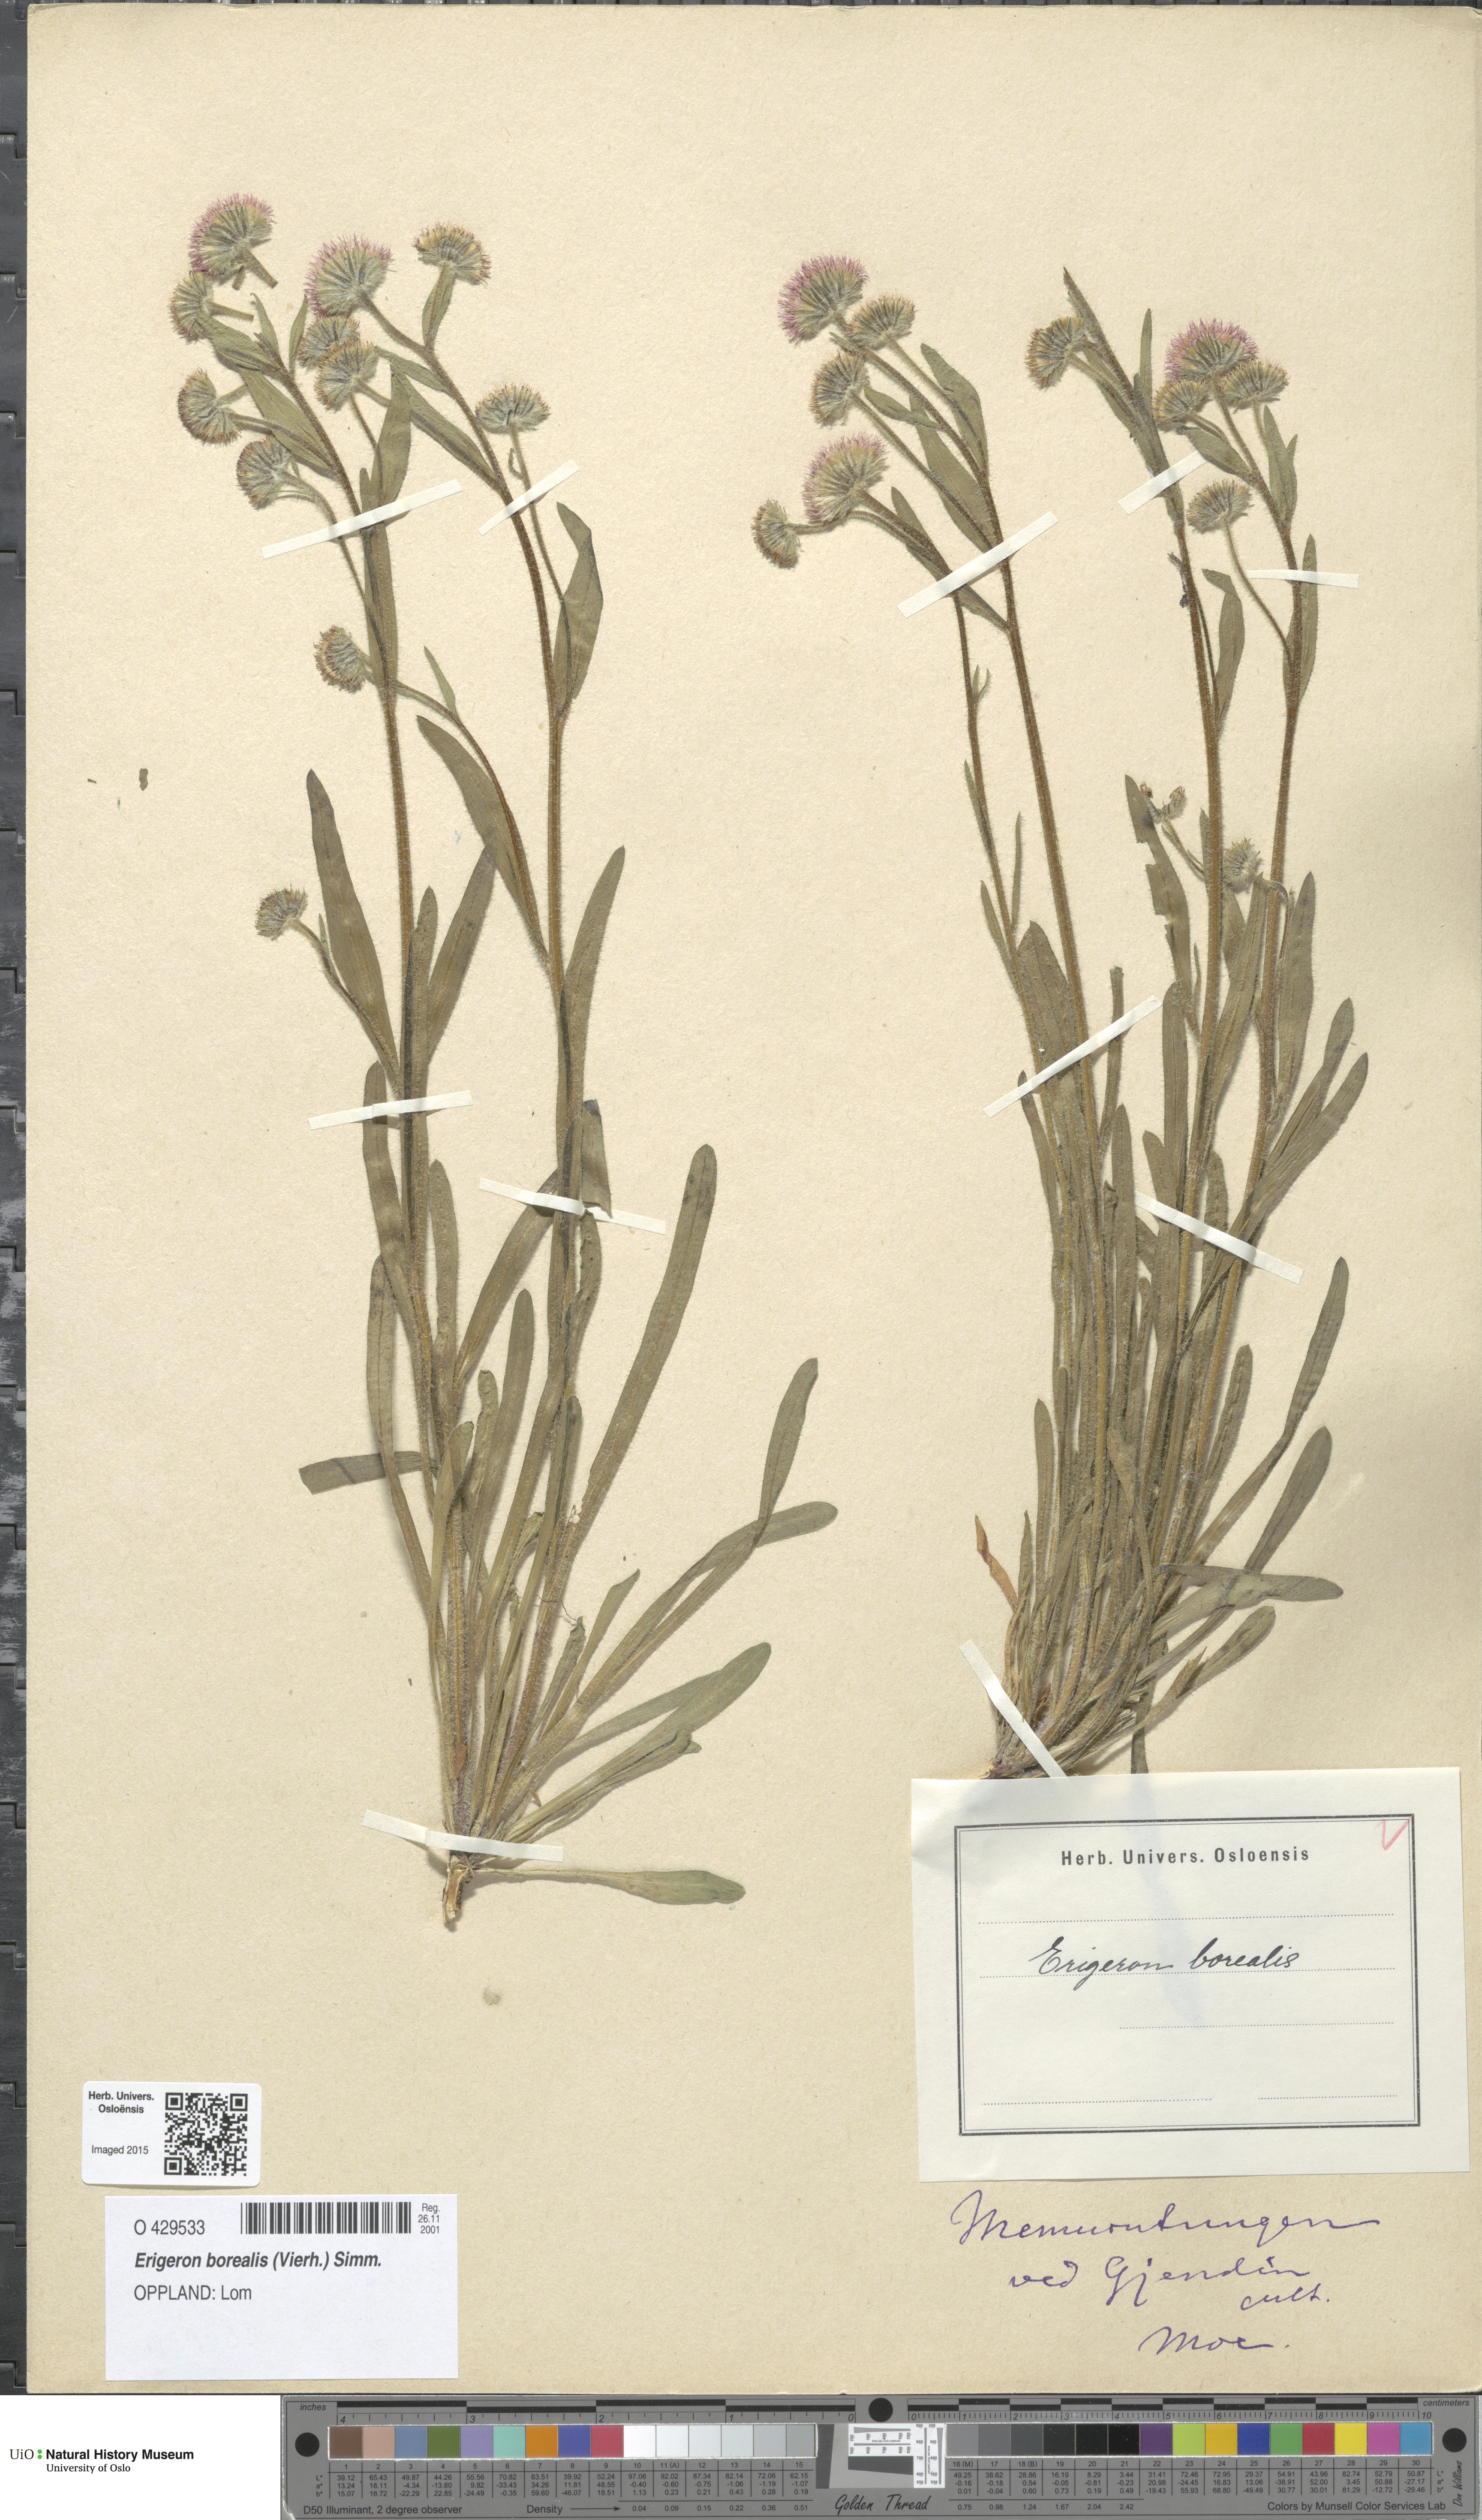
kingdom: Plantae
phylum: Tracheophyta
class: Magnoliopsida
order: Asterales
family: Asteraceae
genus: Erigeron
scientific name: Erigeron borealis
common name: Alpine fleabane
